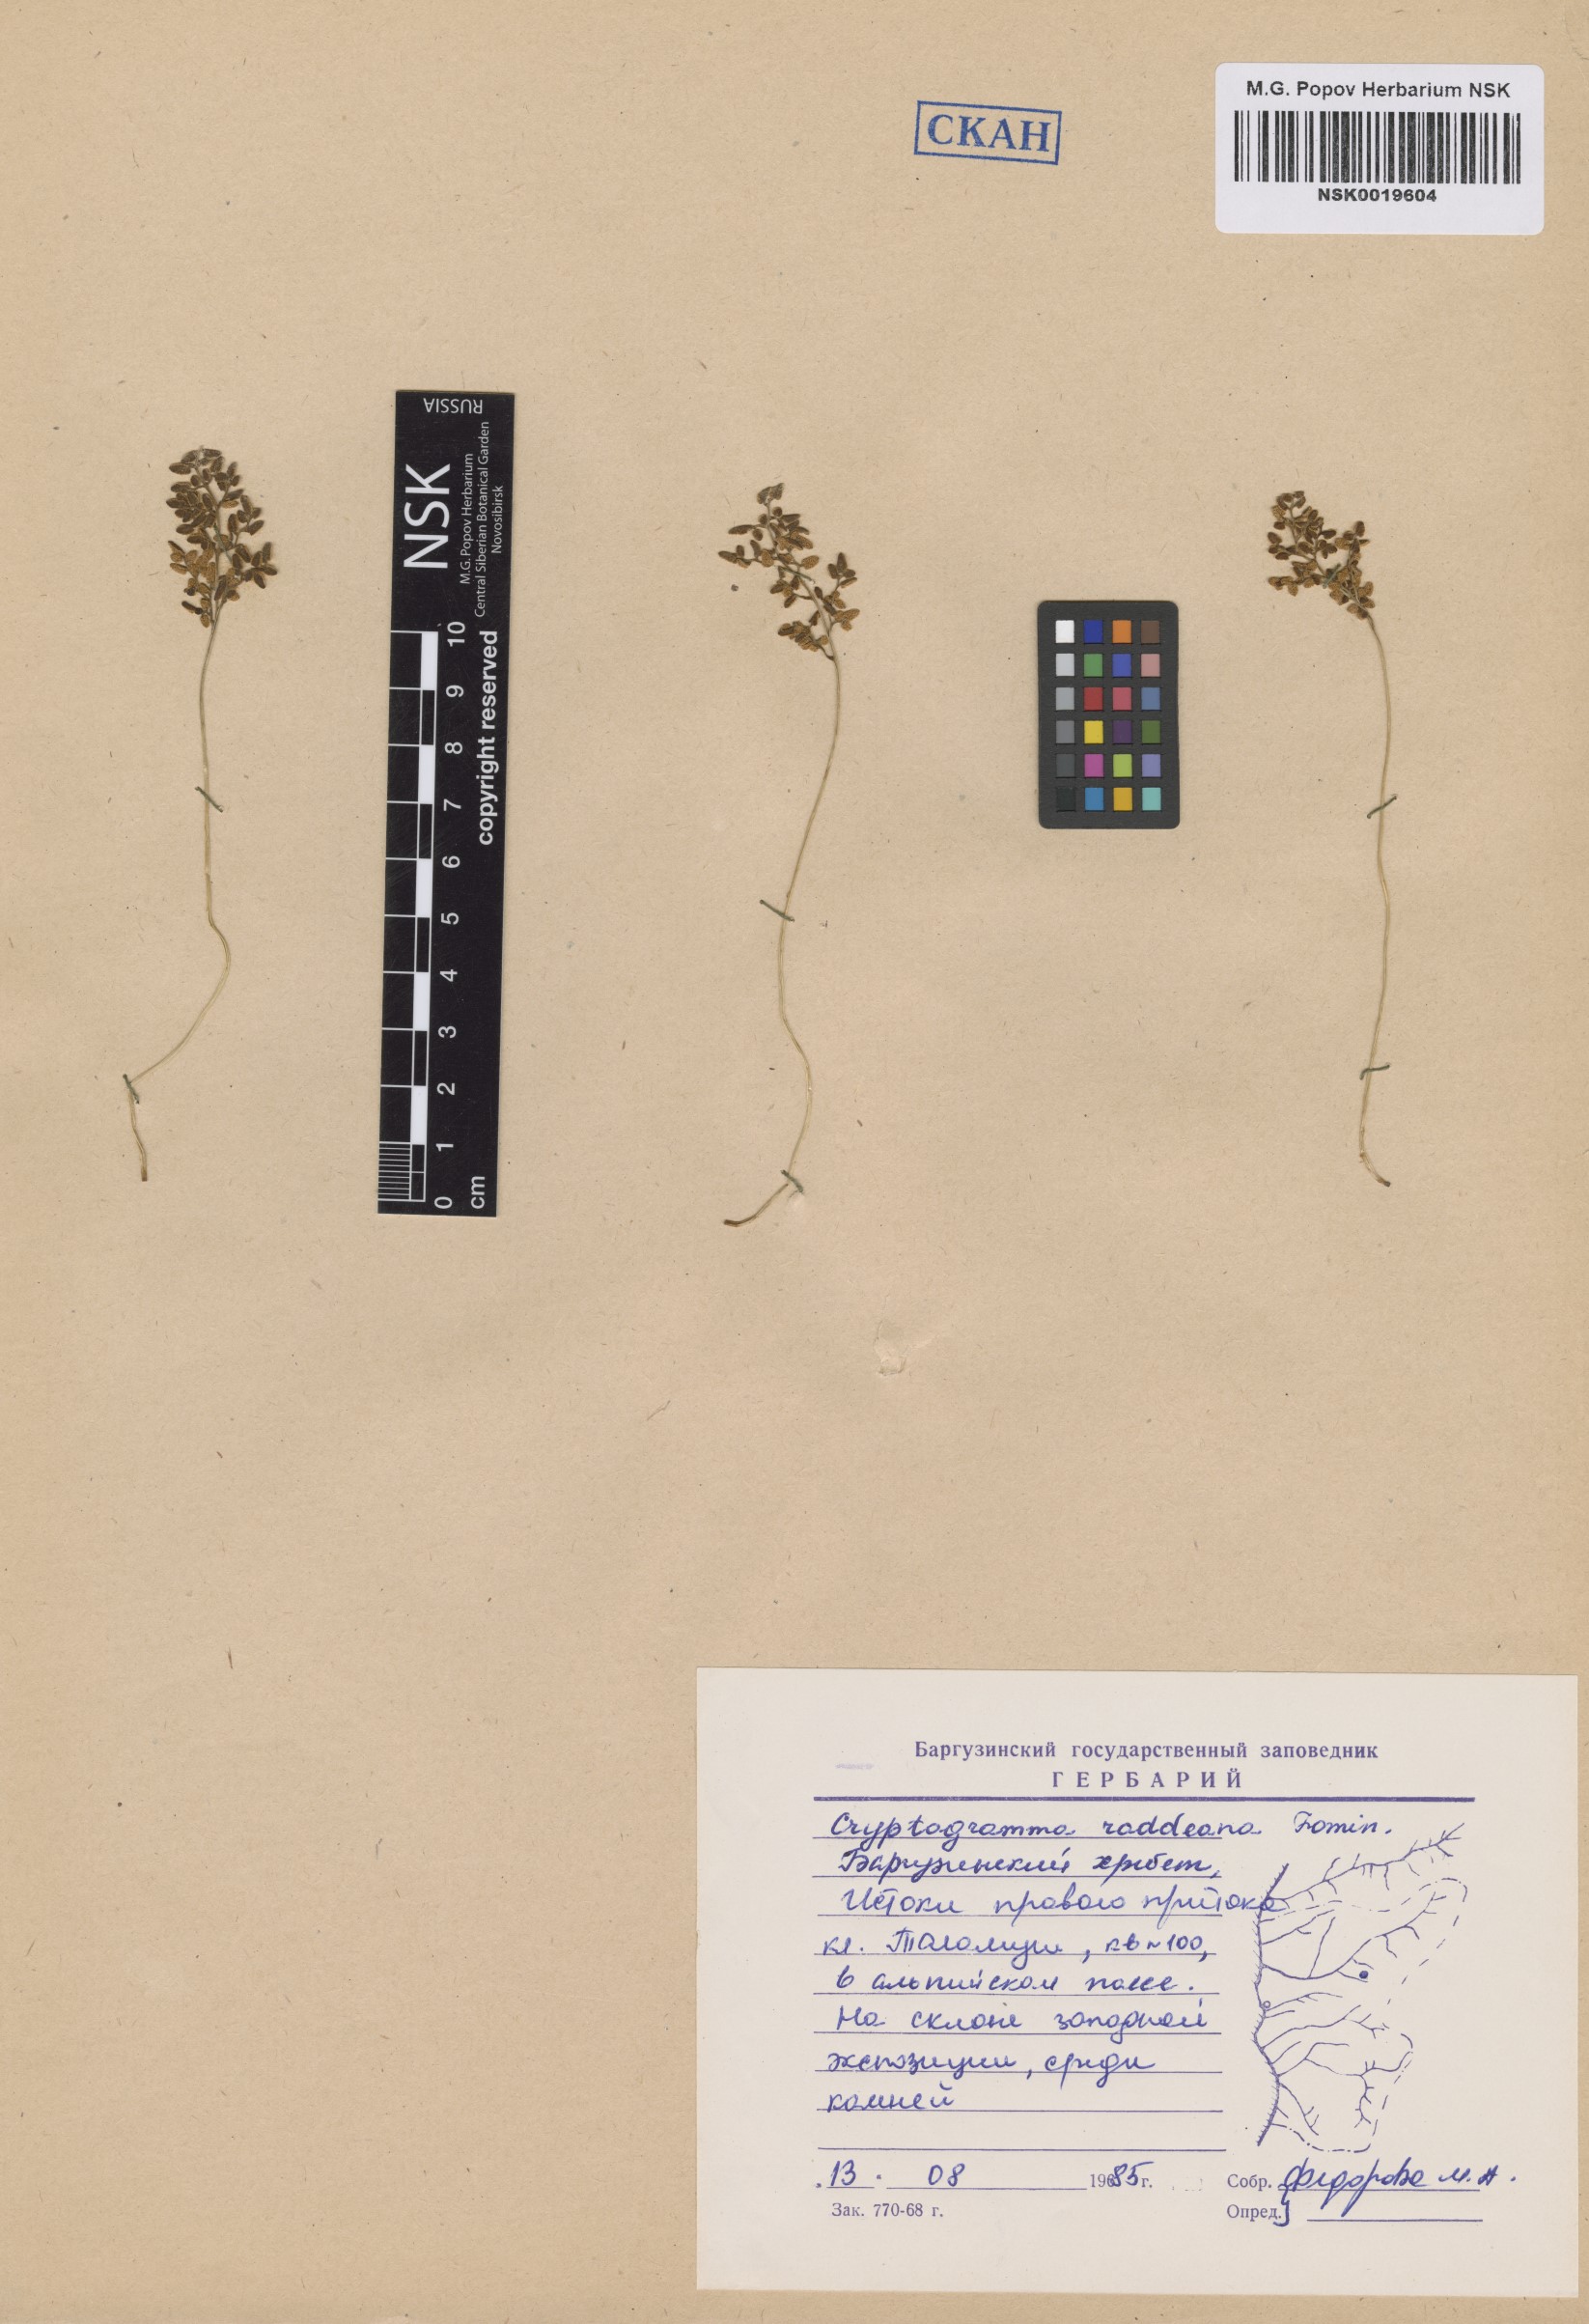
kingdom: Plantae
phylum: Tracheophyta
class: Polypodiopsida
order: Polypodiales
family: Pteridaceae
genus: Cryptogramma
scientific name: Cryptogramma brunoniana
